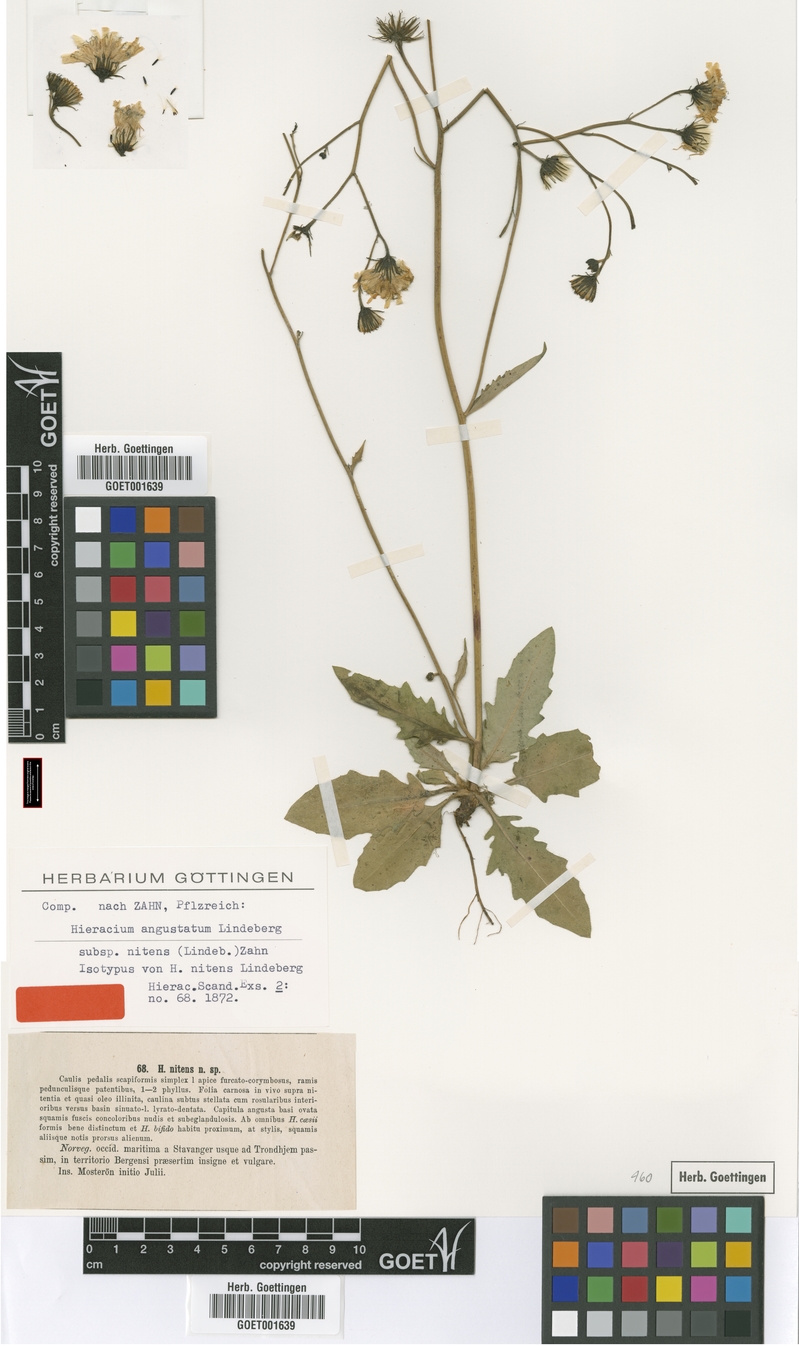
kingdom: Plantae
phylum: Tracheophyta
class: Magnoliopsida
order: Asterales
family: Asteraceae
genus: Hieracium
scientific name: Hieracium nitens
